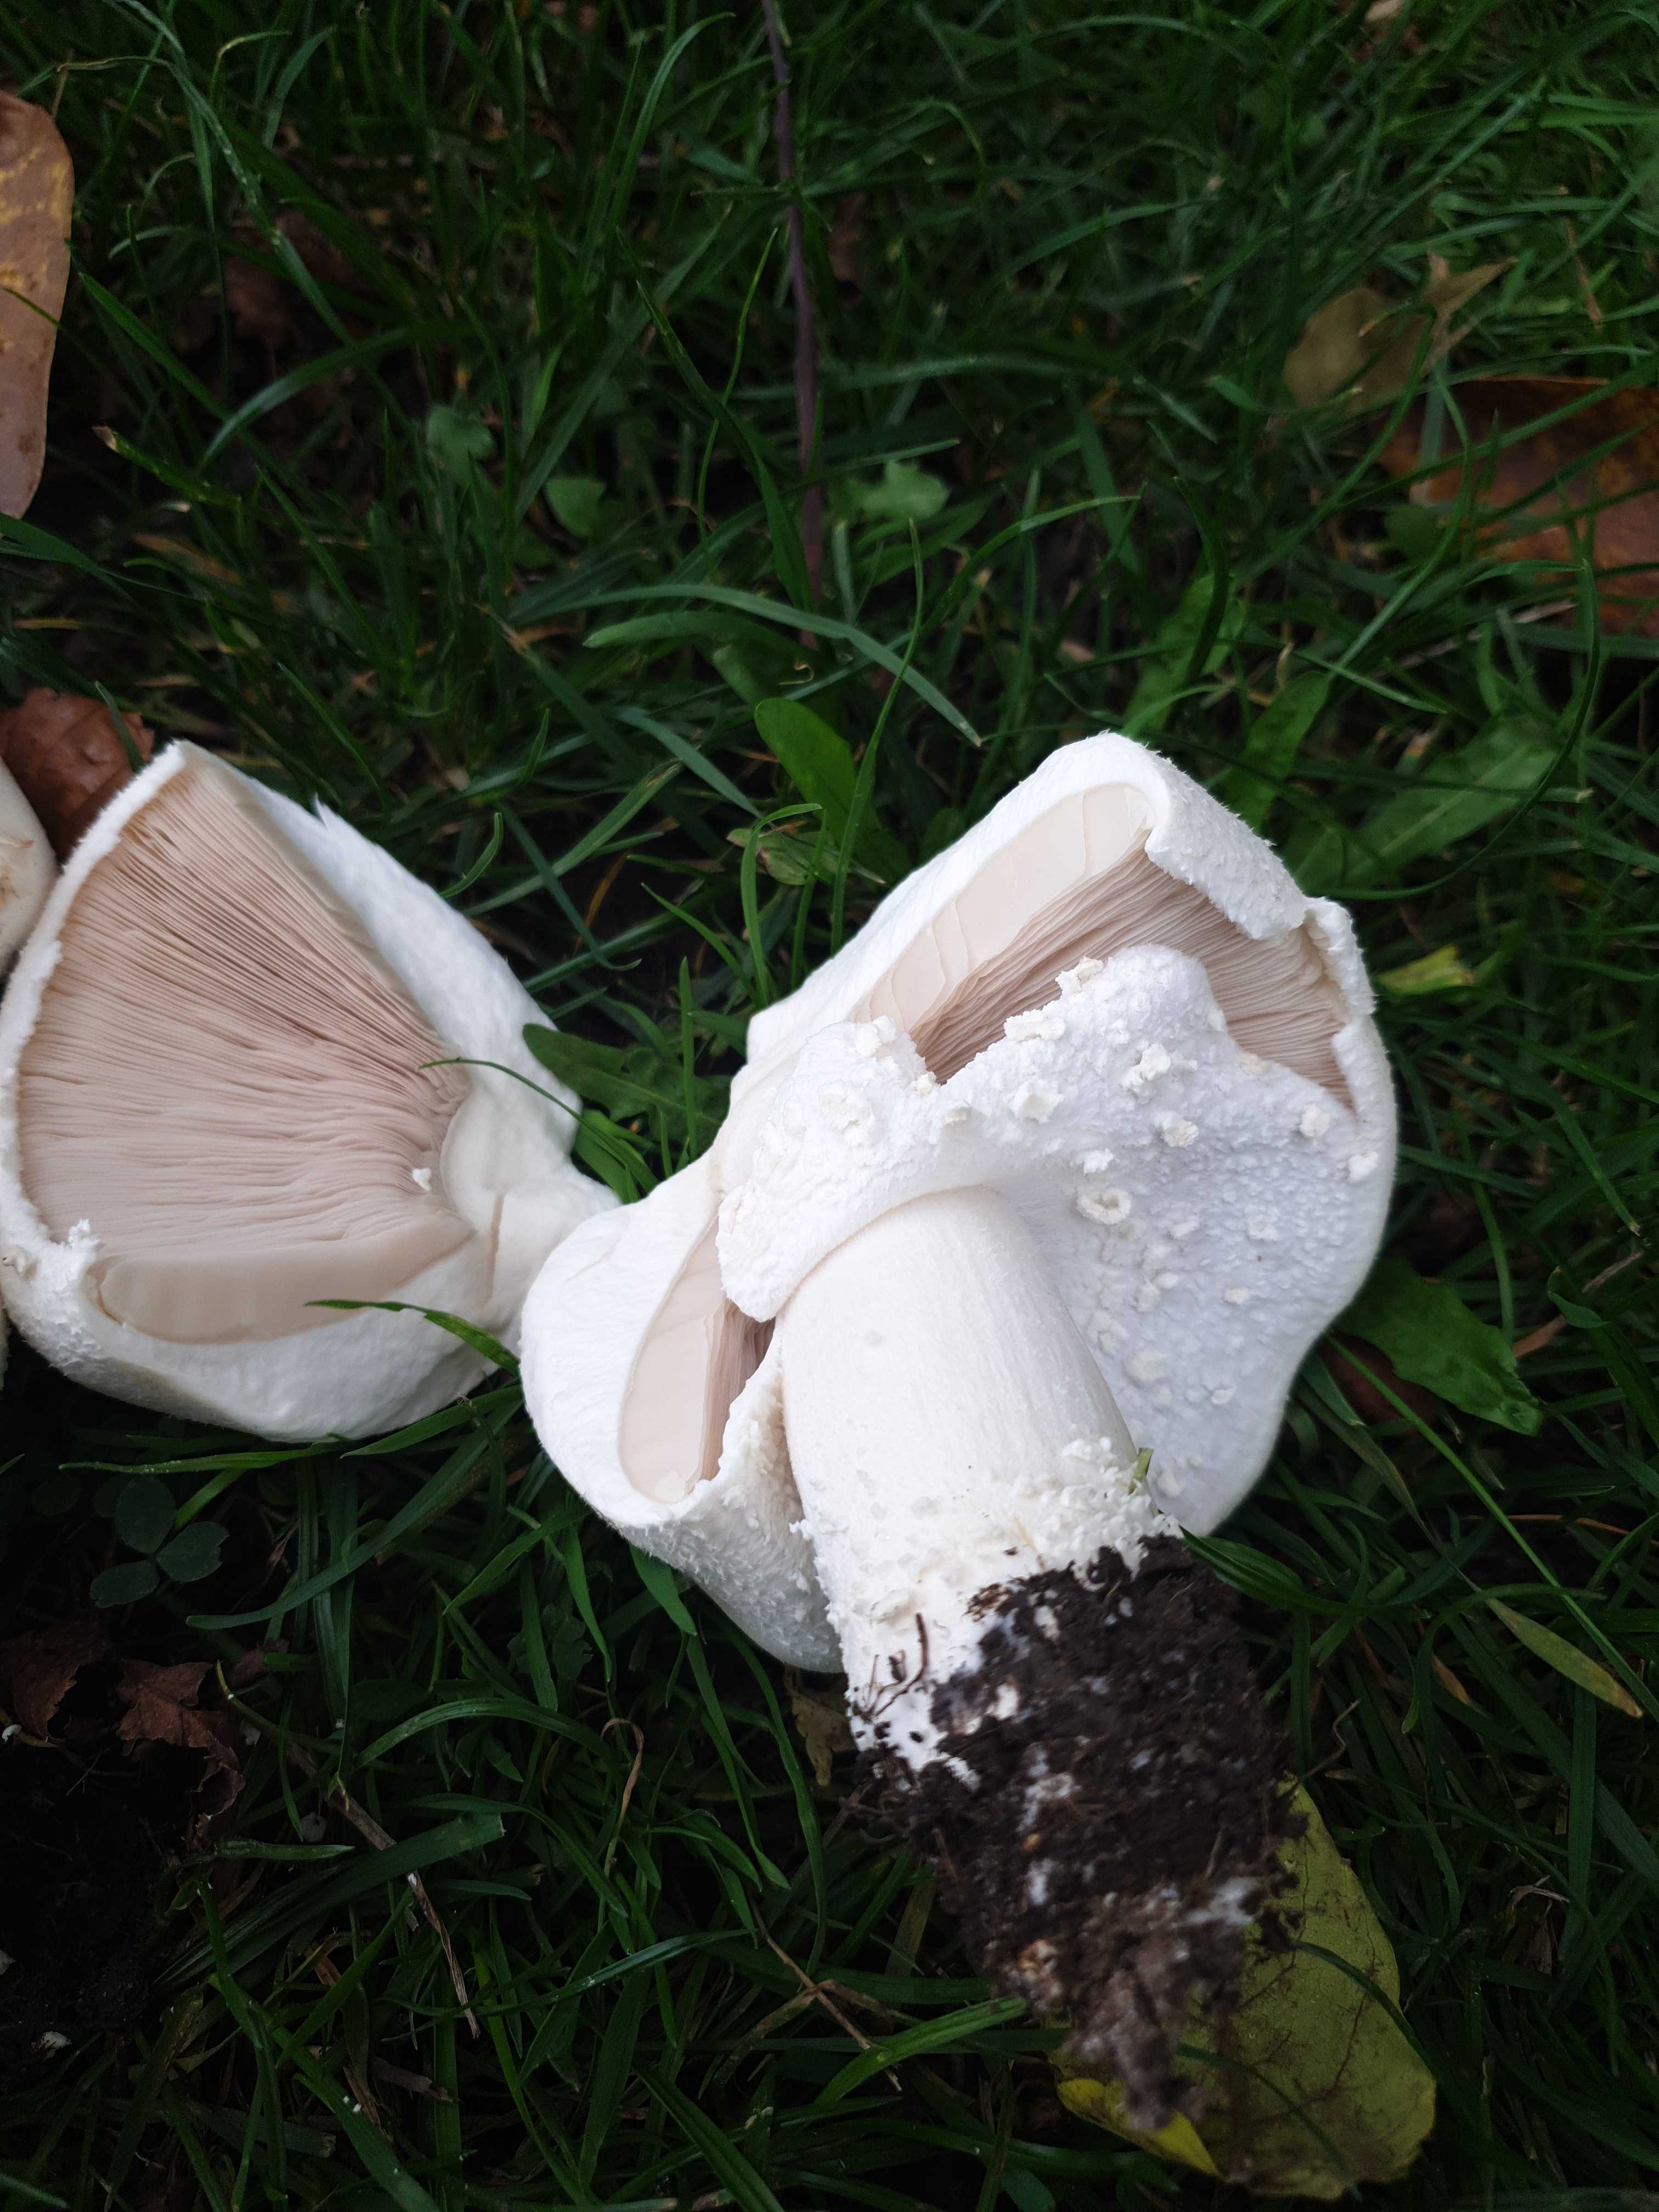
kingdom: Fungi
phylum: Basidiomycota
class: Agaricomycetes
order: Agaricales
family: Agaricaceae
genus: Agaricus
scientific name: Agaricus
